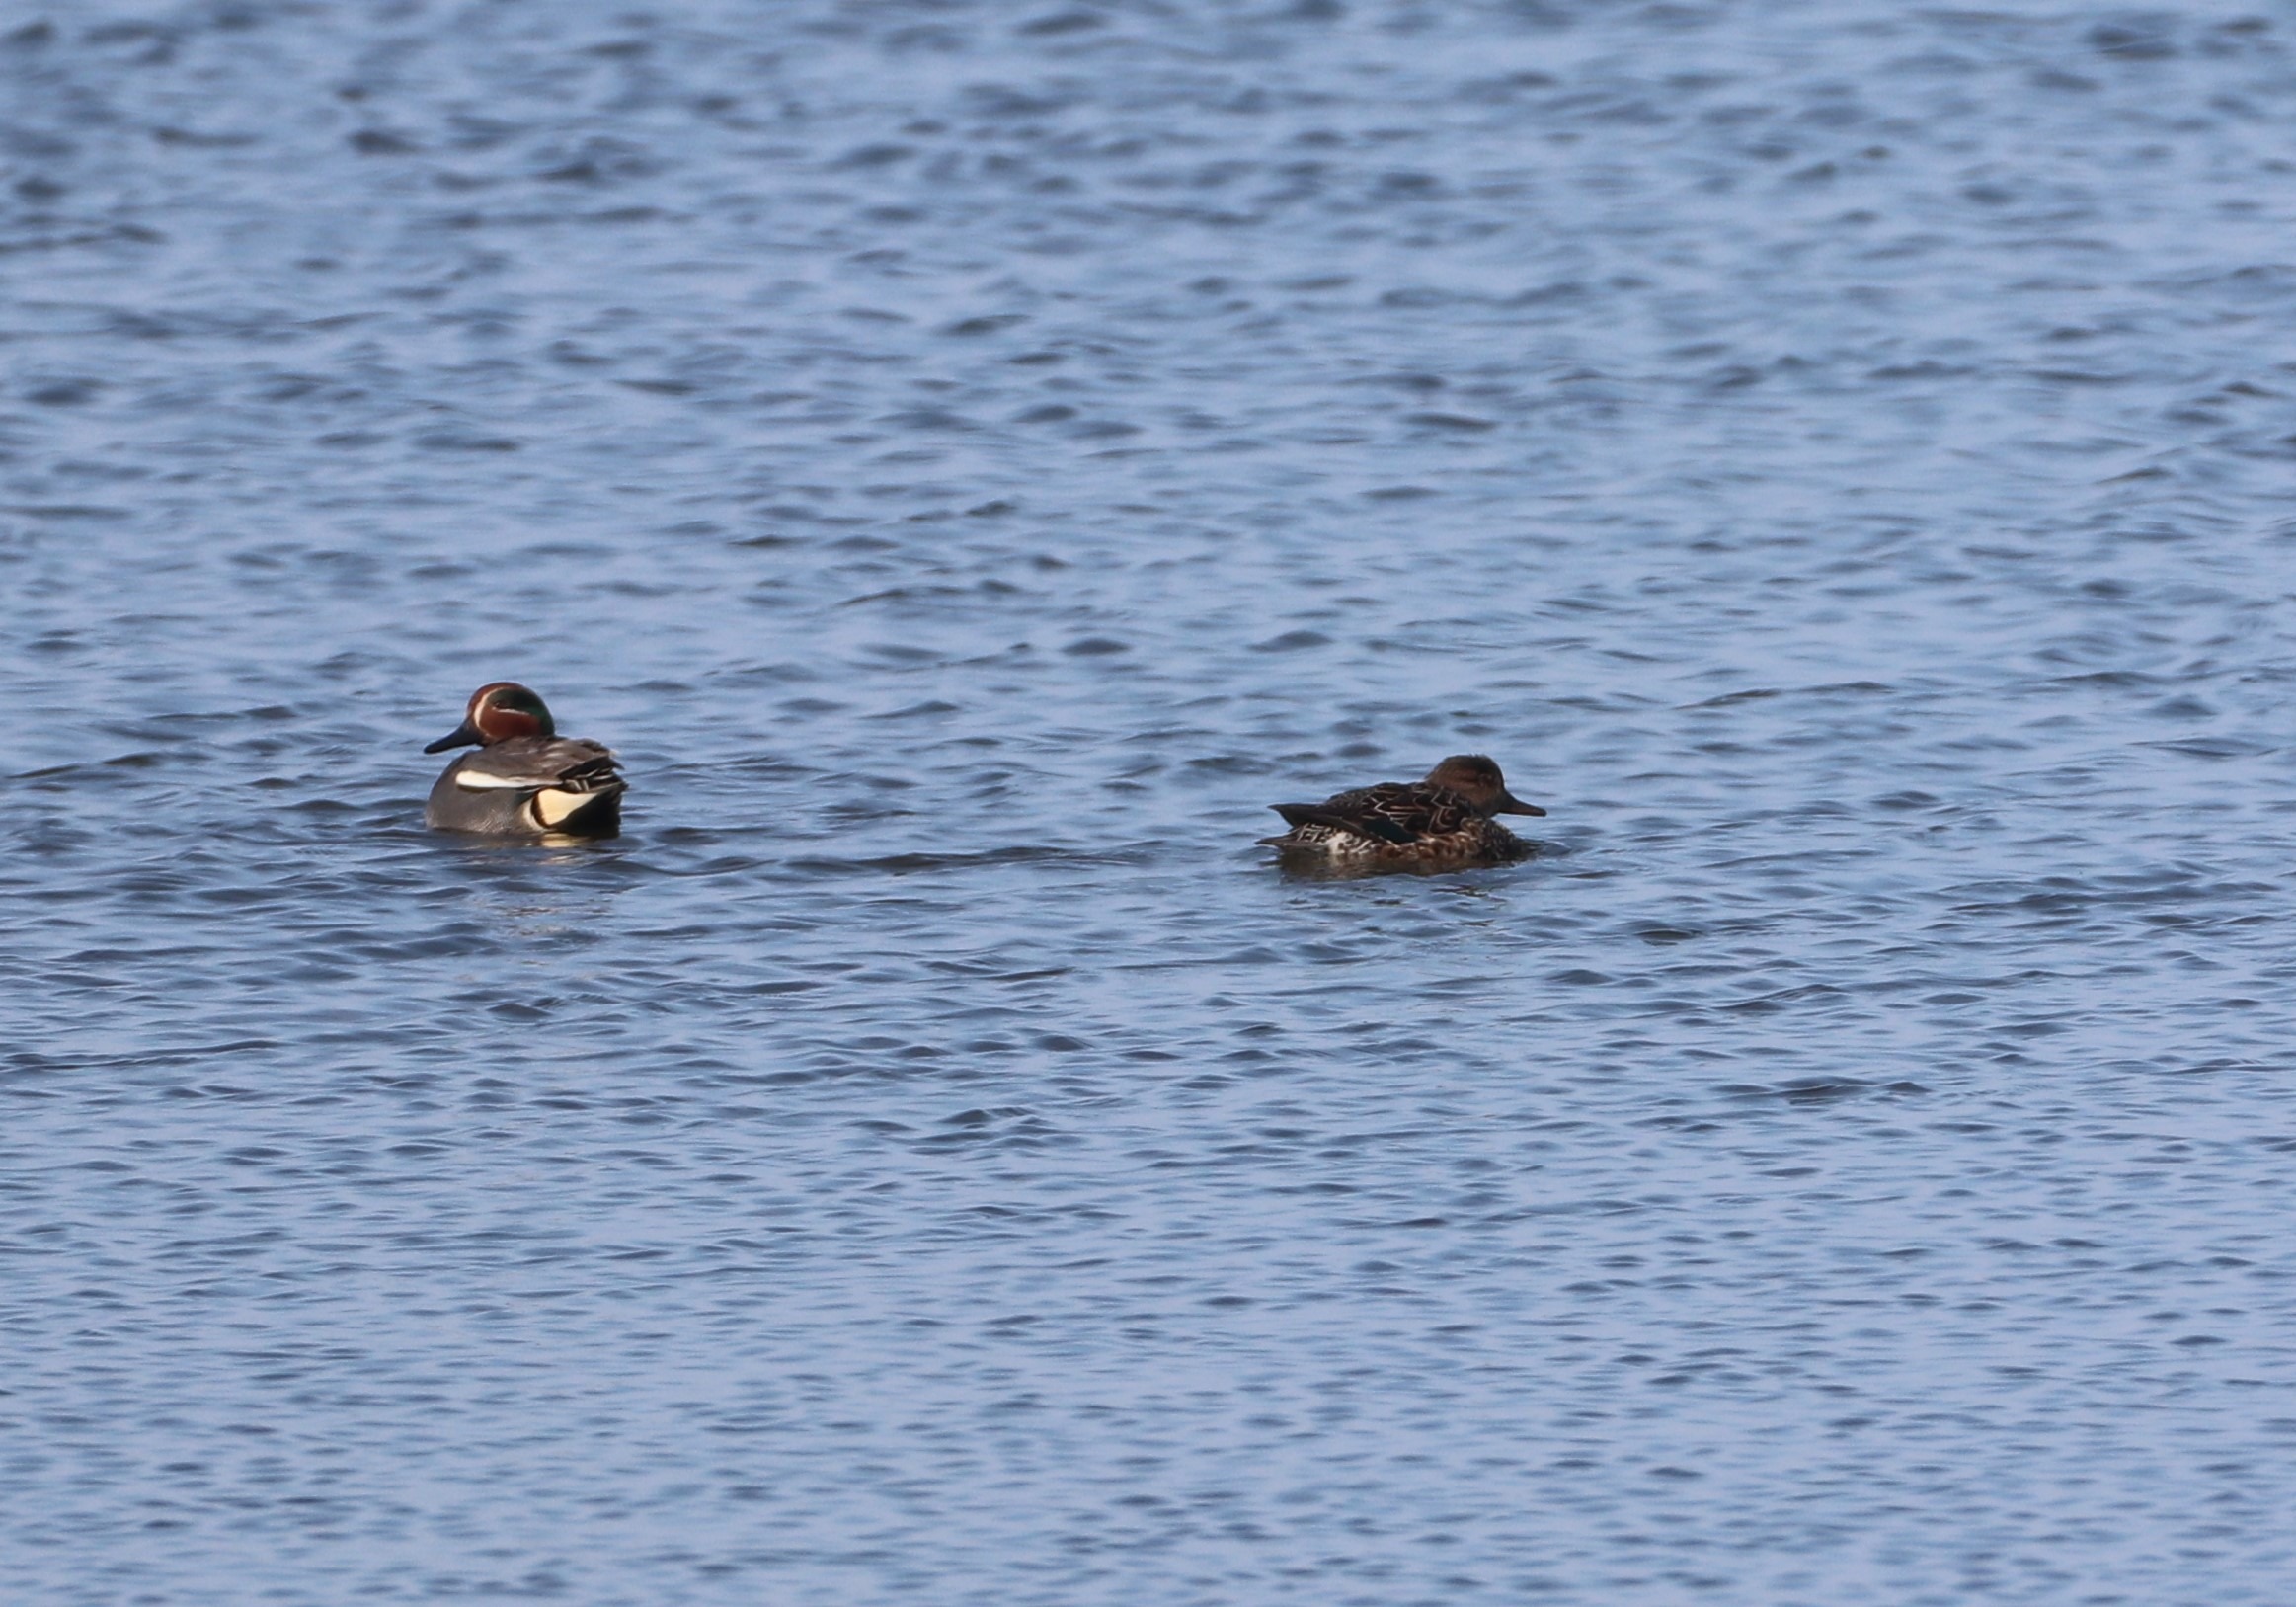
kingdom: Animalia
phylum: Chordata
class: Aves
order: Anseriformes
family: Anatidae
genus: Anas
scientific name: Anas crecca
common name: Krikand
